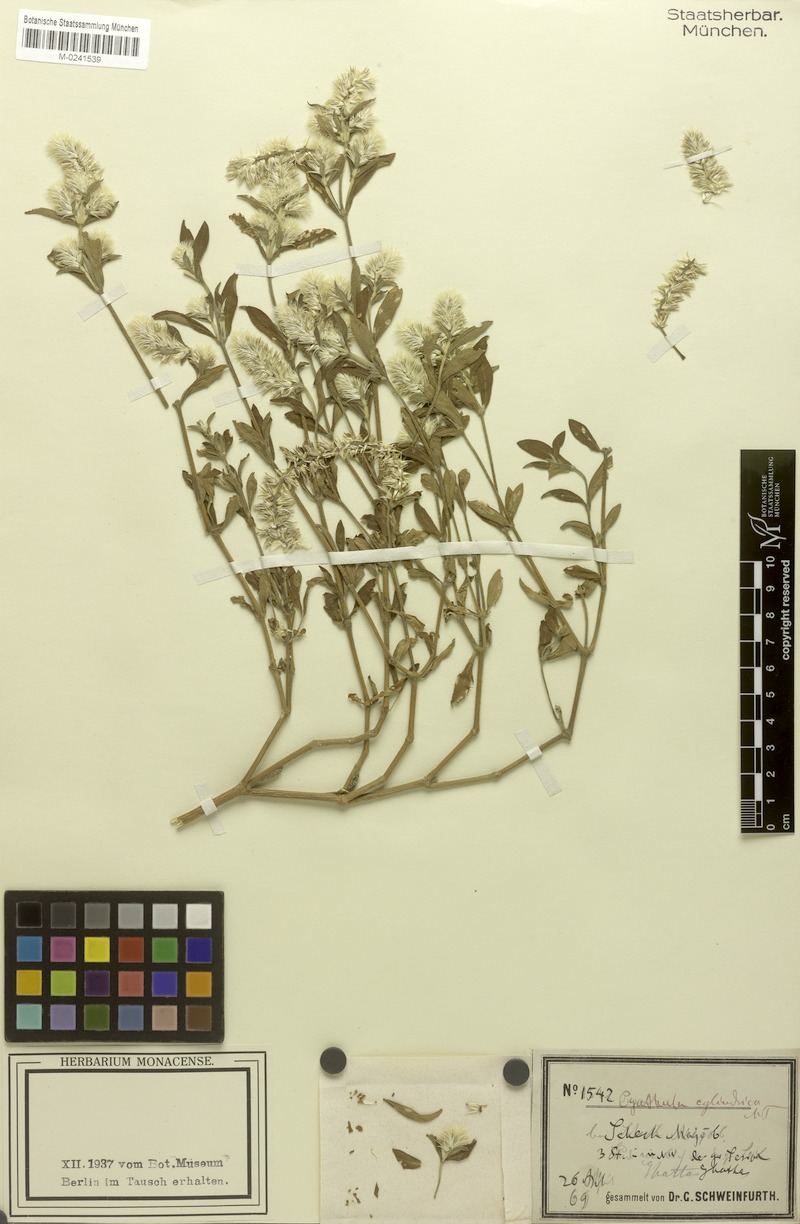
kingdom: Plantae
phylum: Tracheophyta
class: Magnoliopsida
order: Caryophyllales
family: Amaranthaceae
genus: Pandiaka
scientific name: Pandiaka elegantissima
